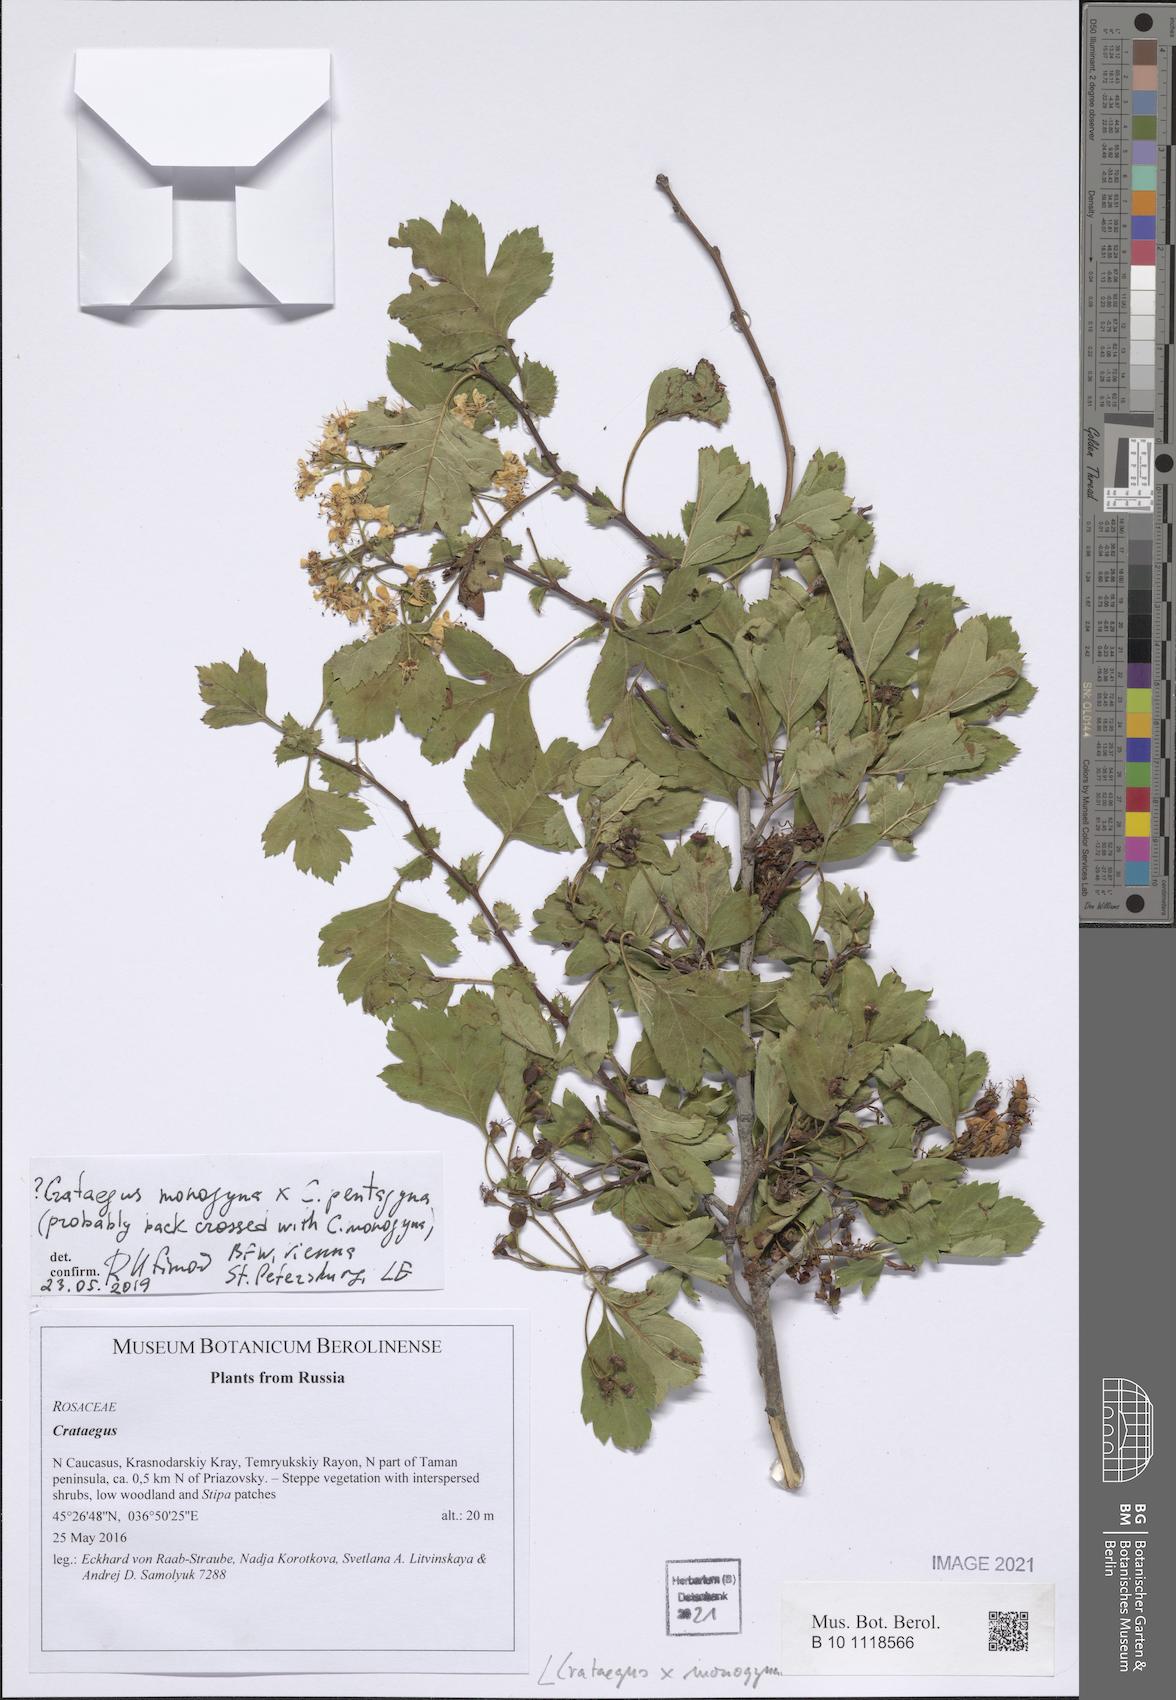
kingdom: Plantae
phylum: Tracheophyta
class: Magnoliopsida
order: Rosales
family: Rosaceae
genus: Crataegus
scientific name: Crataegus monogyna
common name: Hawthorn
